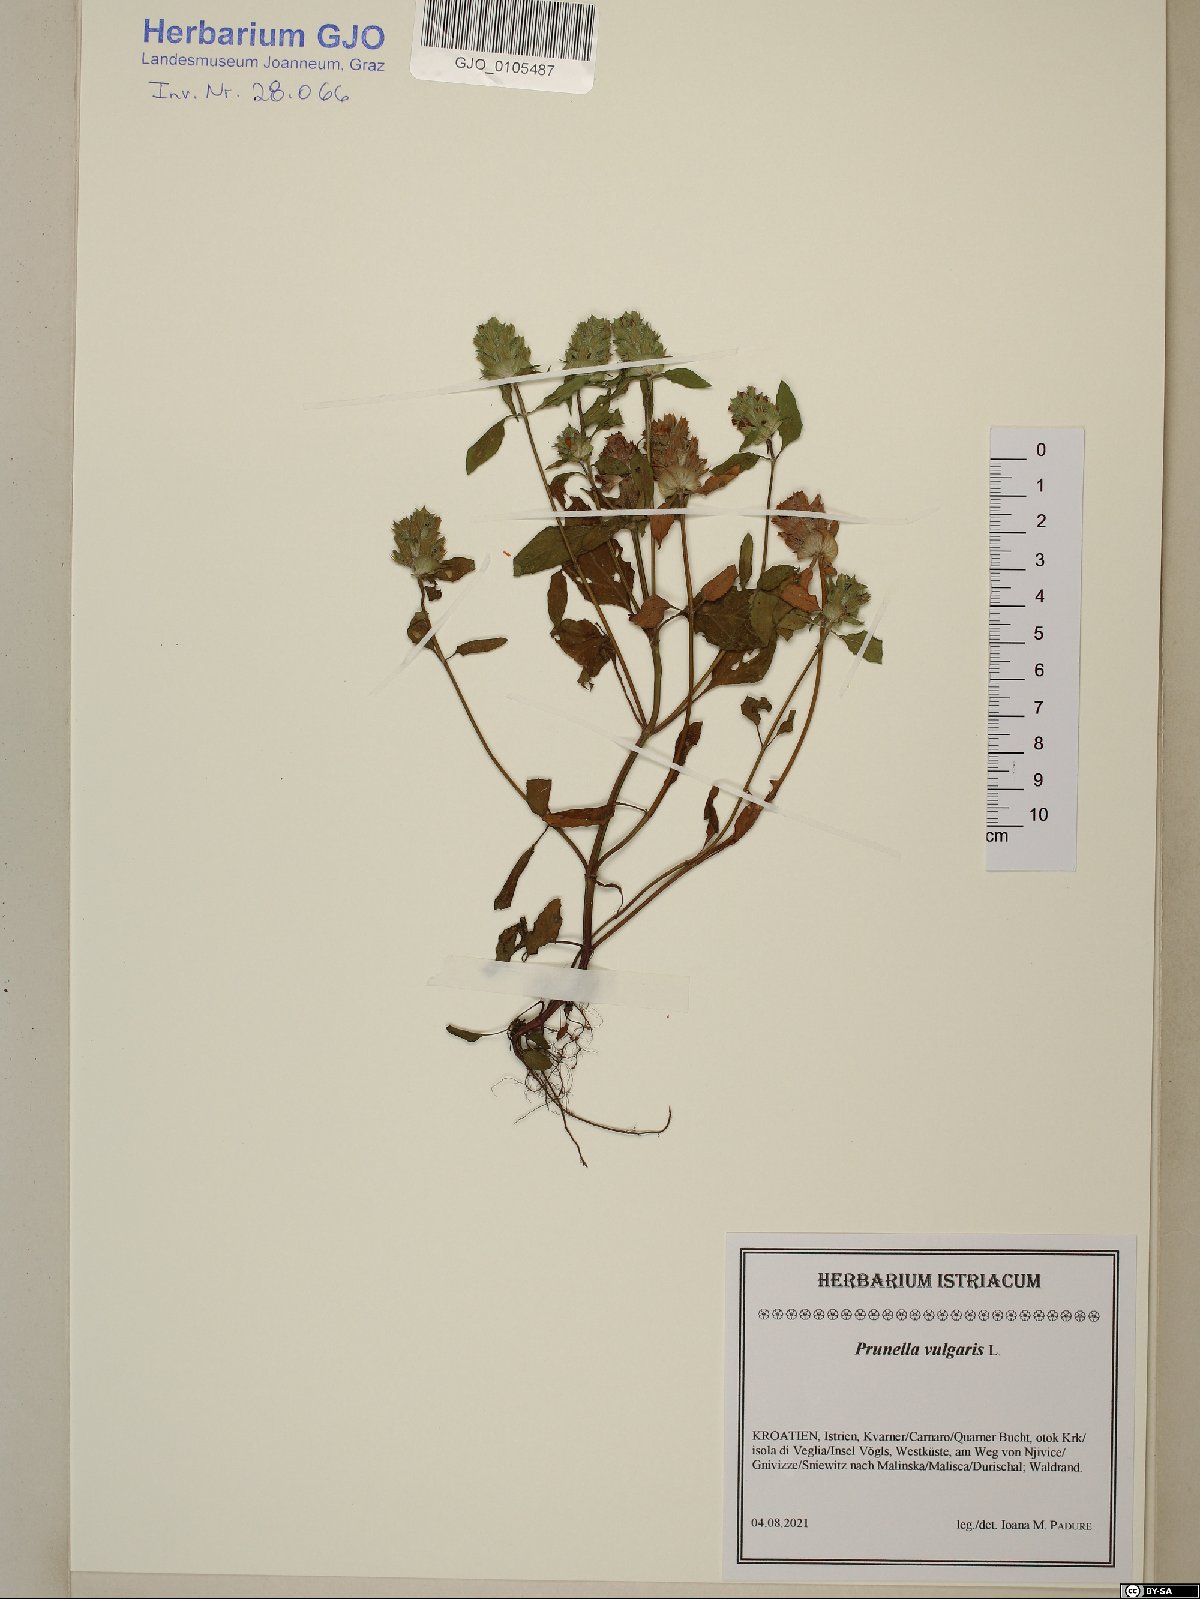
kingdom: Plantae
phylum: Tracheophyta
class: Magnoliopsida
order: Lamiales
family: Lamiaceae
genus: Prunella
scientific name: Prunella vulgaris
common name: Heal-all
